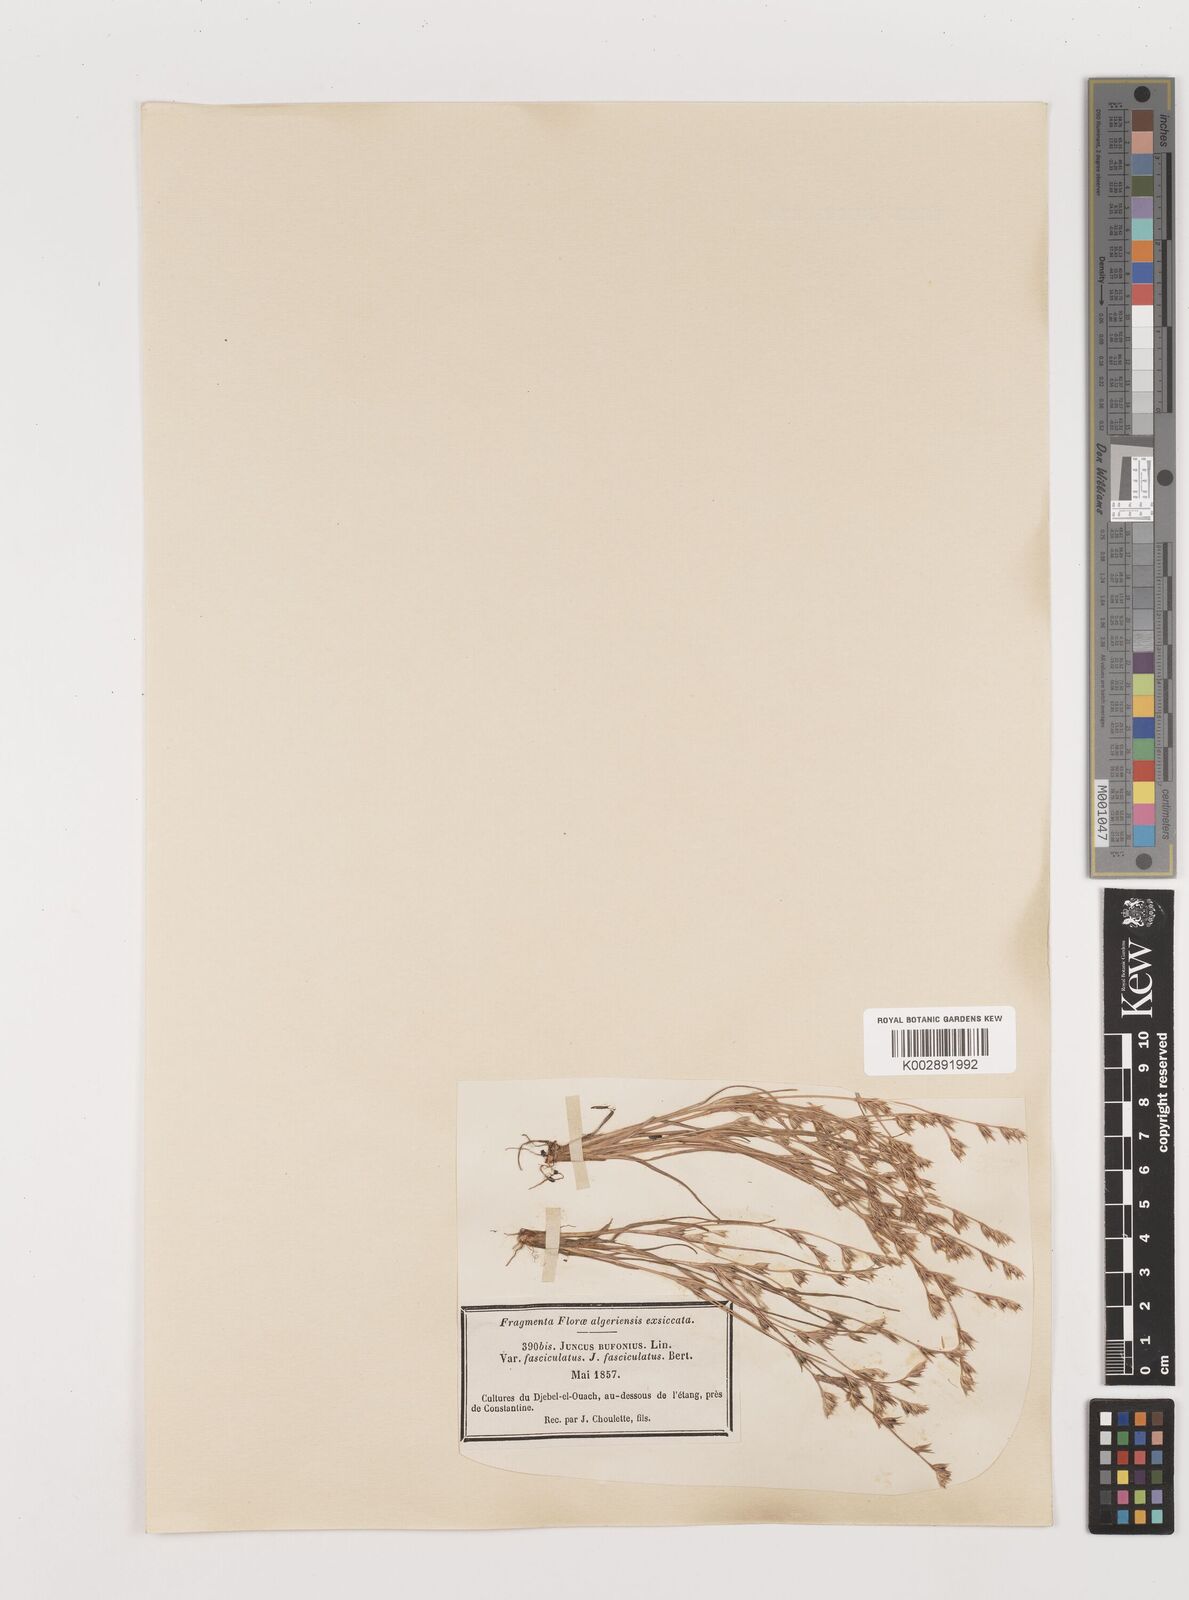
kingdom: Plantae
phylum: Tracheophyta
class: Liliopsida
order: Poales
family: Juncaceae
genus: Juncus
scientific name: Juncus bufonius
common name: Toad rush
